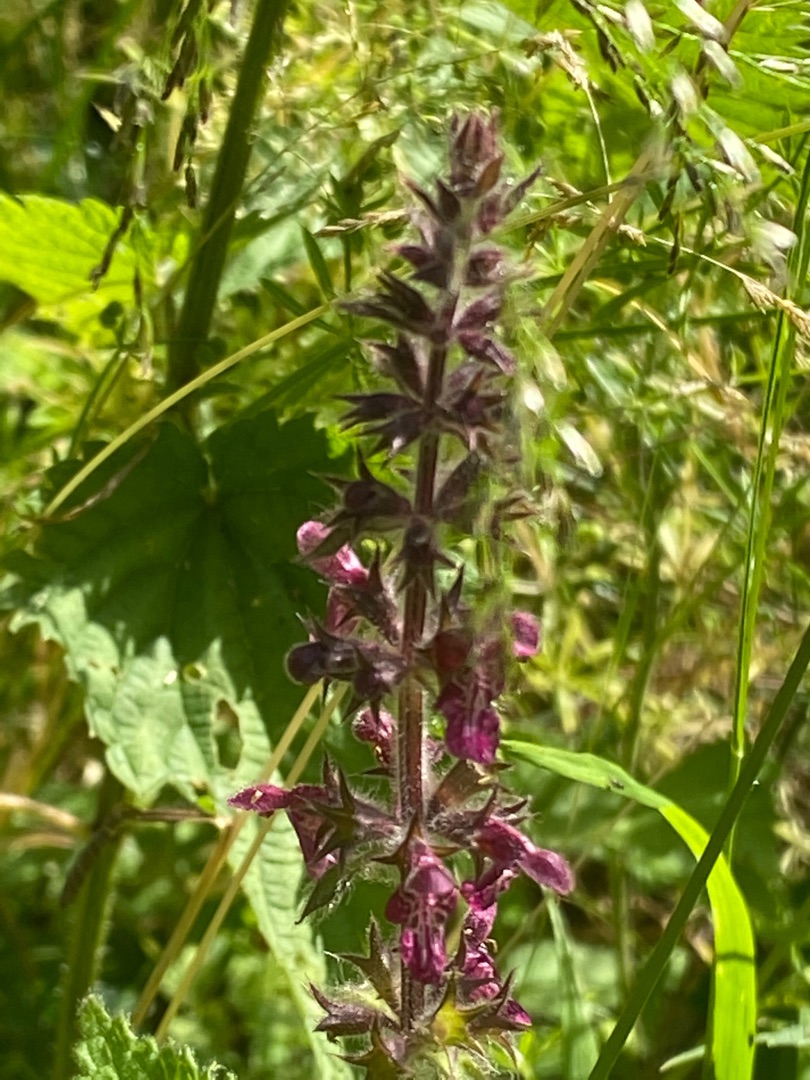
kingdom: Plantae
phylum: Tracheophyta
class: Magnoliopsida
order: Lamiales
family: Lamiaceae
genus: Stachys
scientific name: Stachys sylvatica
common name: Skov-galtetand
